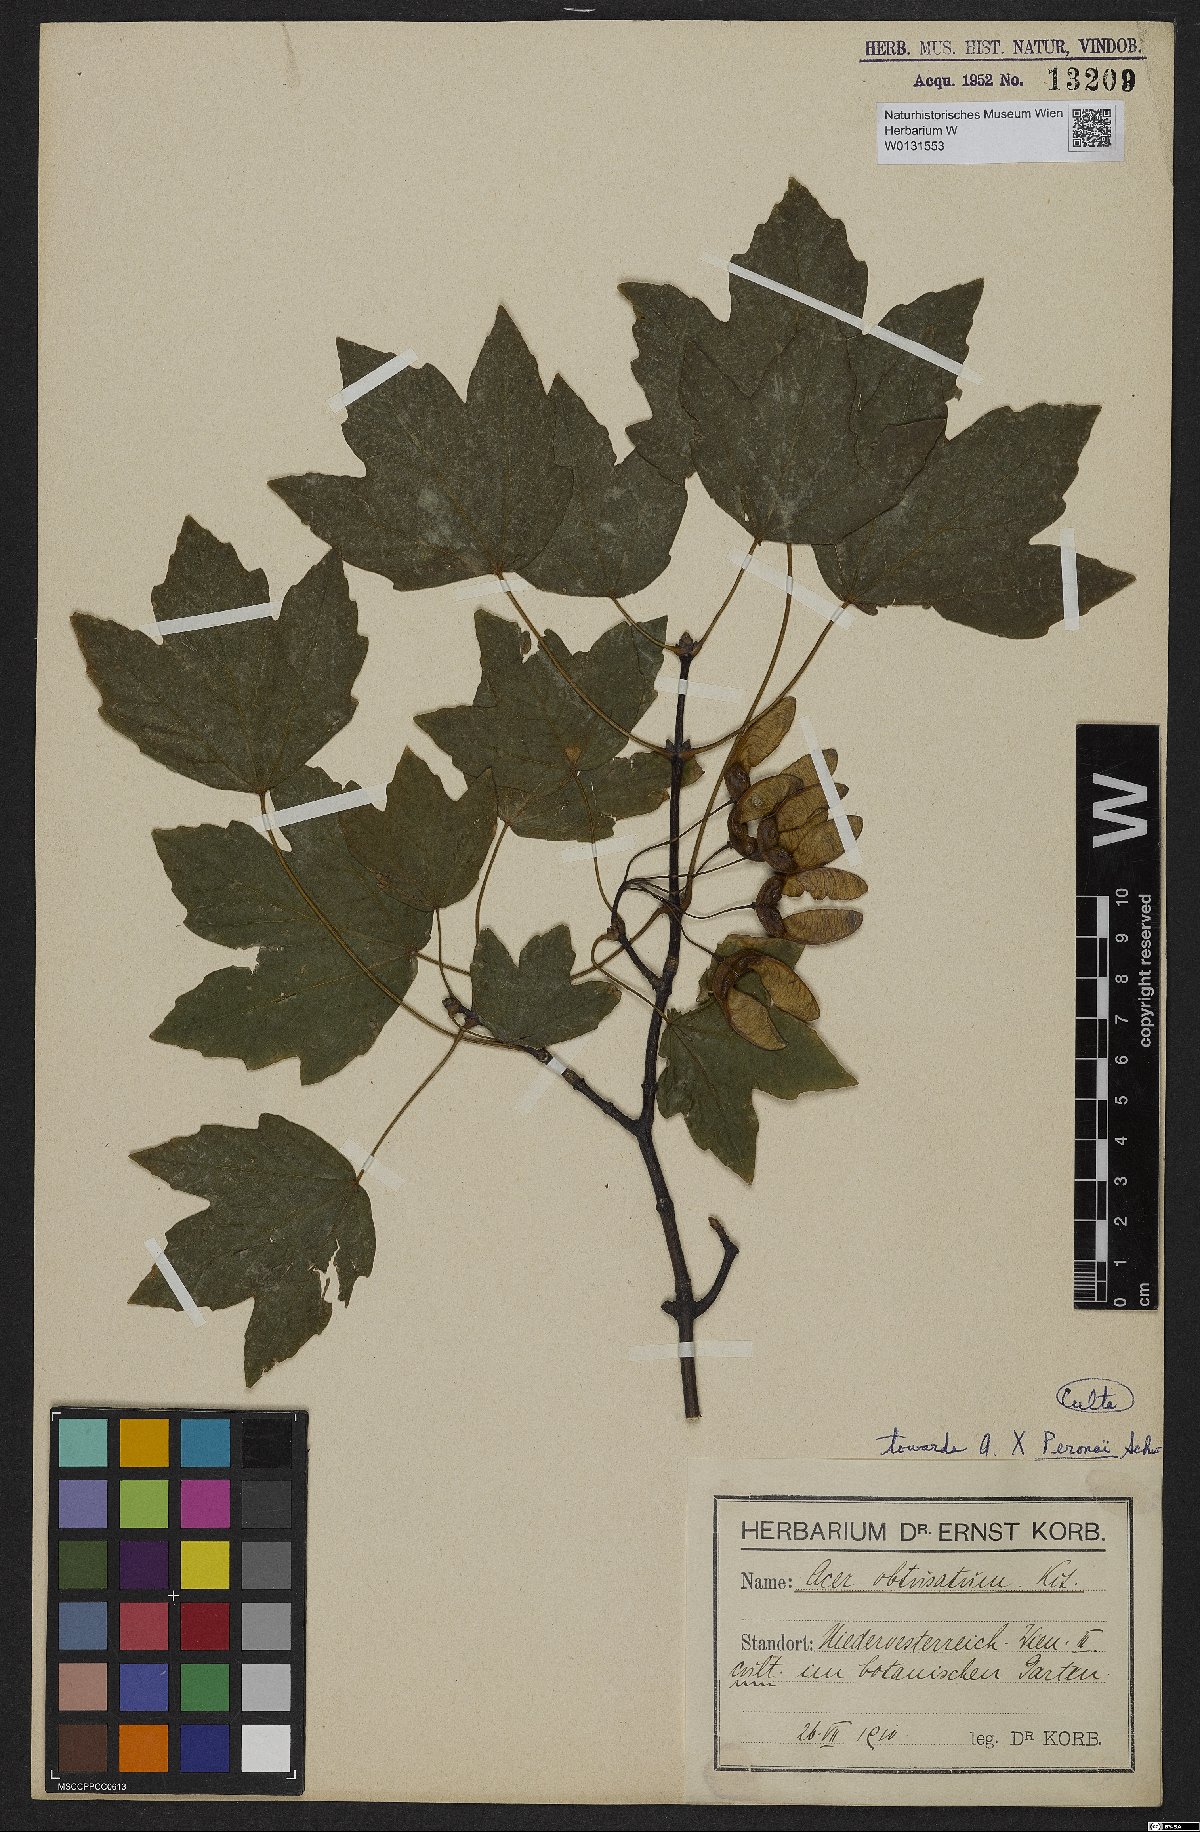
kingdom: Plantae
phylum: Tracheophyta
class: Magnoliopsida
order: Sapindales
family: Aceraceae
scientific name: Aceraceae
